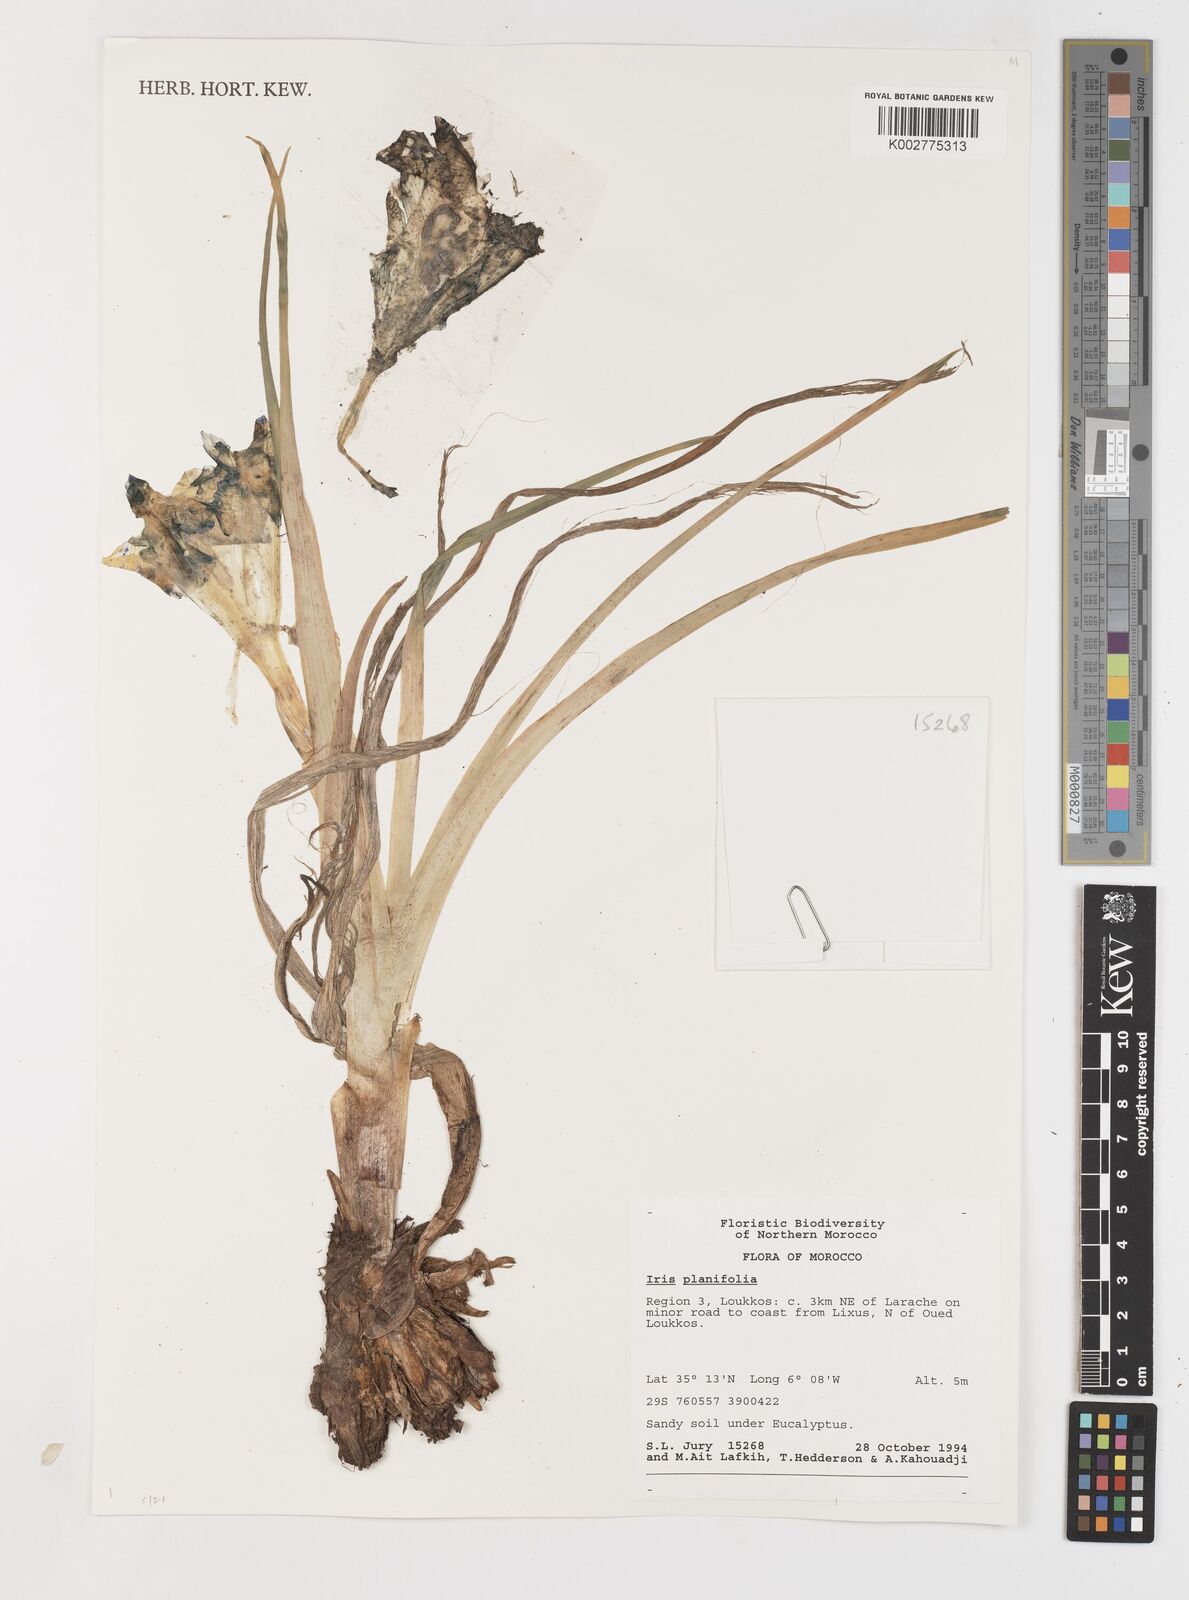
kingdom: Plantae
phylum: Tracheophyta
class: Liliopsida
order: Asparagales
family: Iridaceae
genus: Iris
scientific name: Iris
